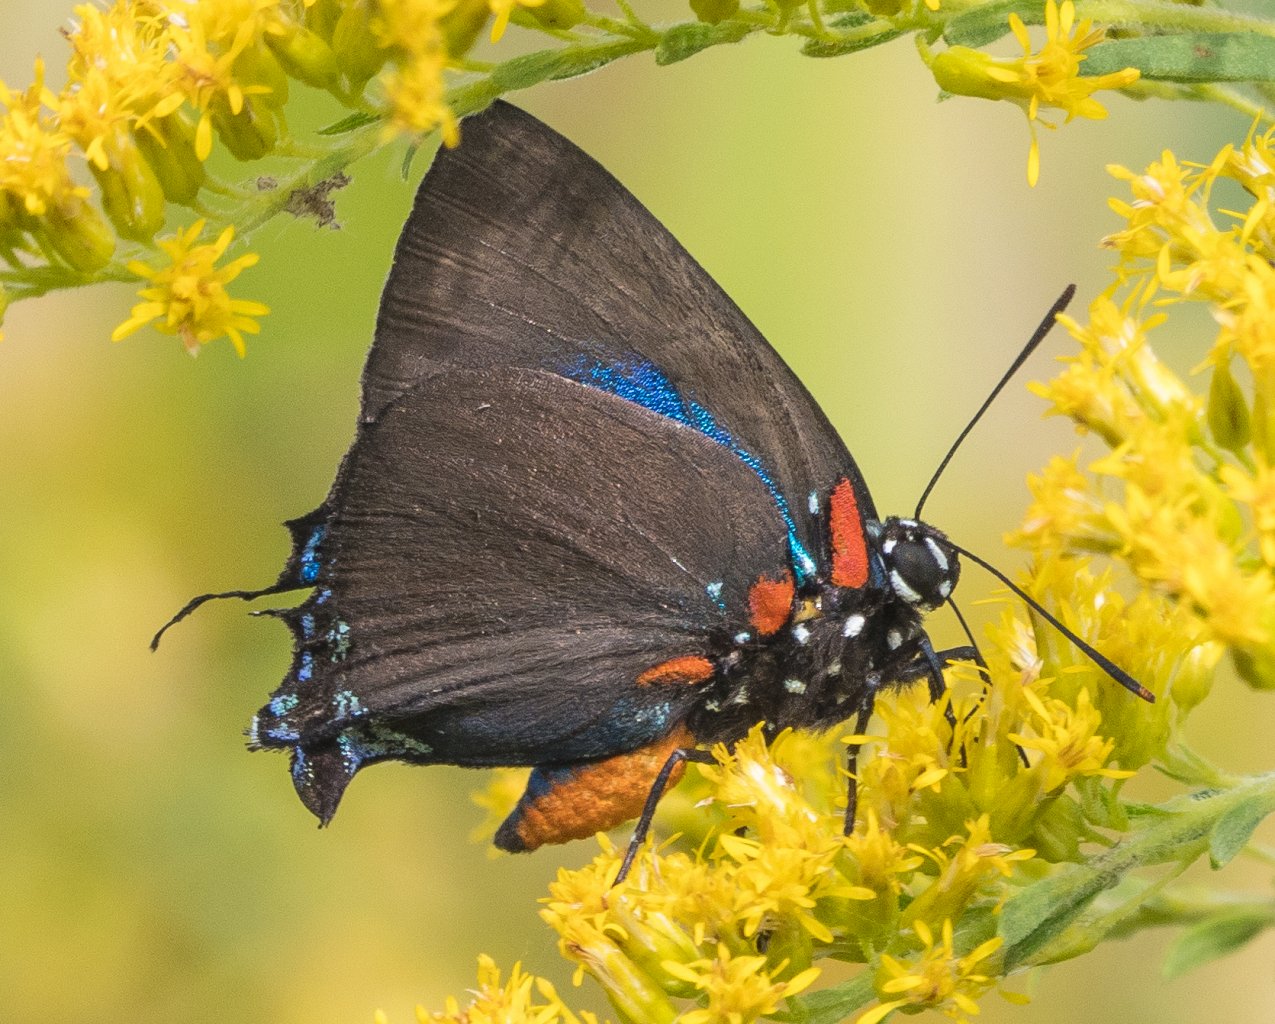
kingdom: Animalia
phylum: Arthropoda
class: Insecta
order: Lepidoptera
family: Lycaenidae
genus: Atlides
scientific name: Atlides halesus
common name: Great Purple Hairstreak
